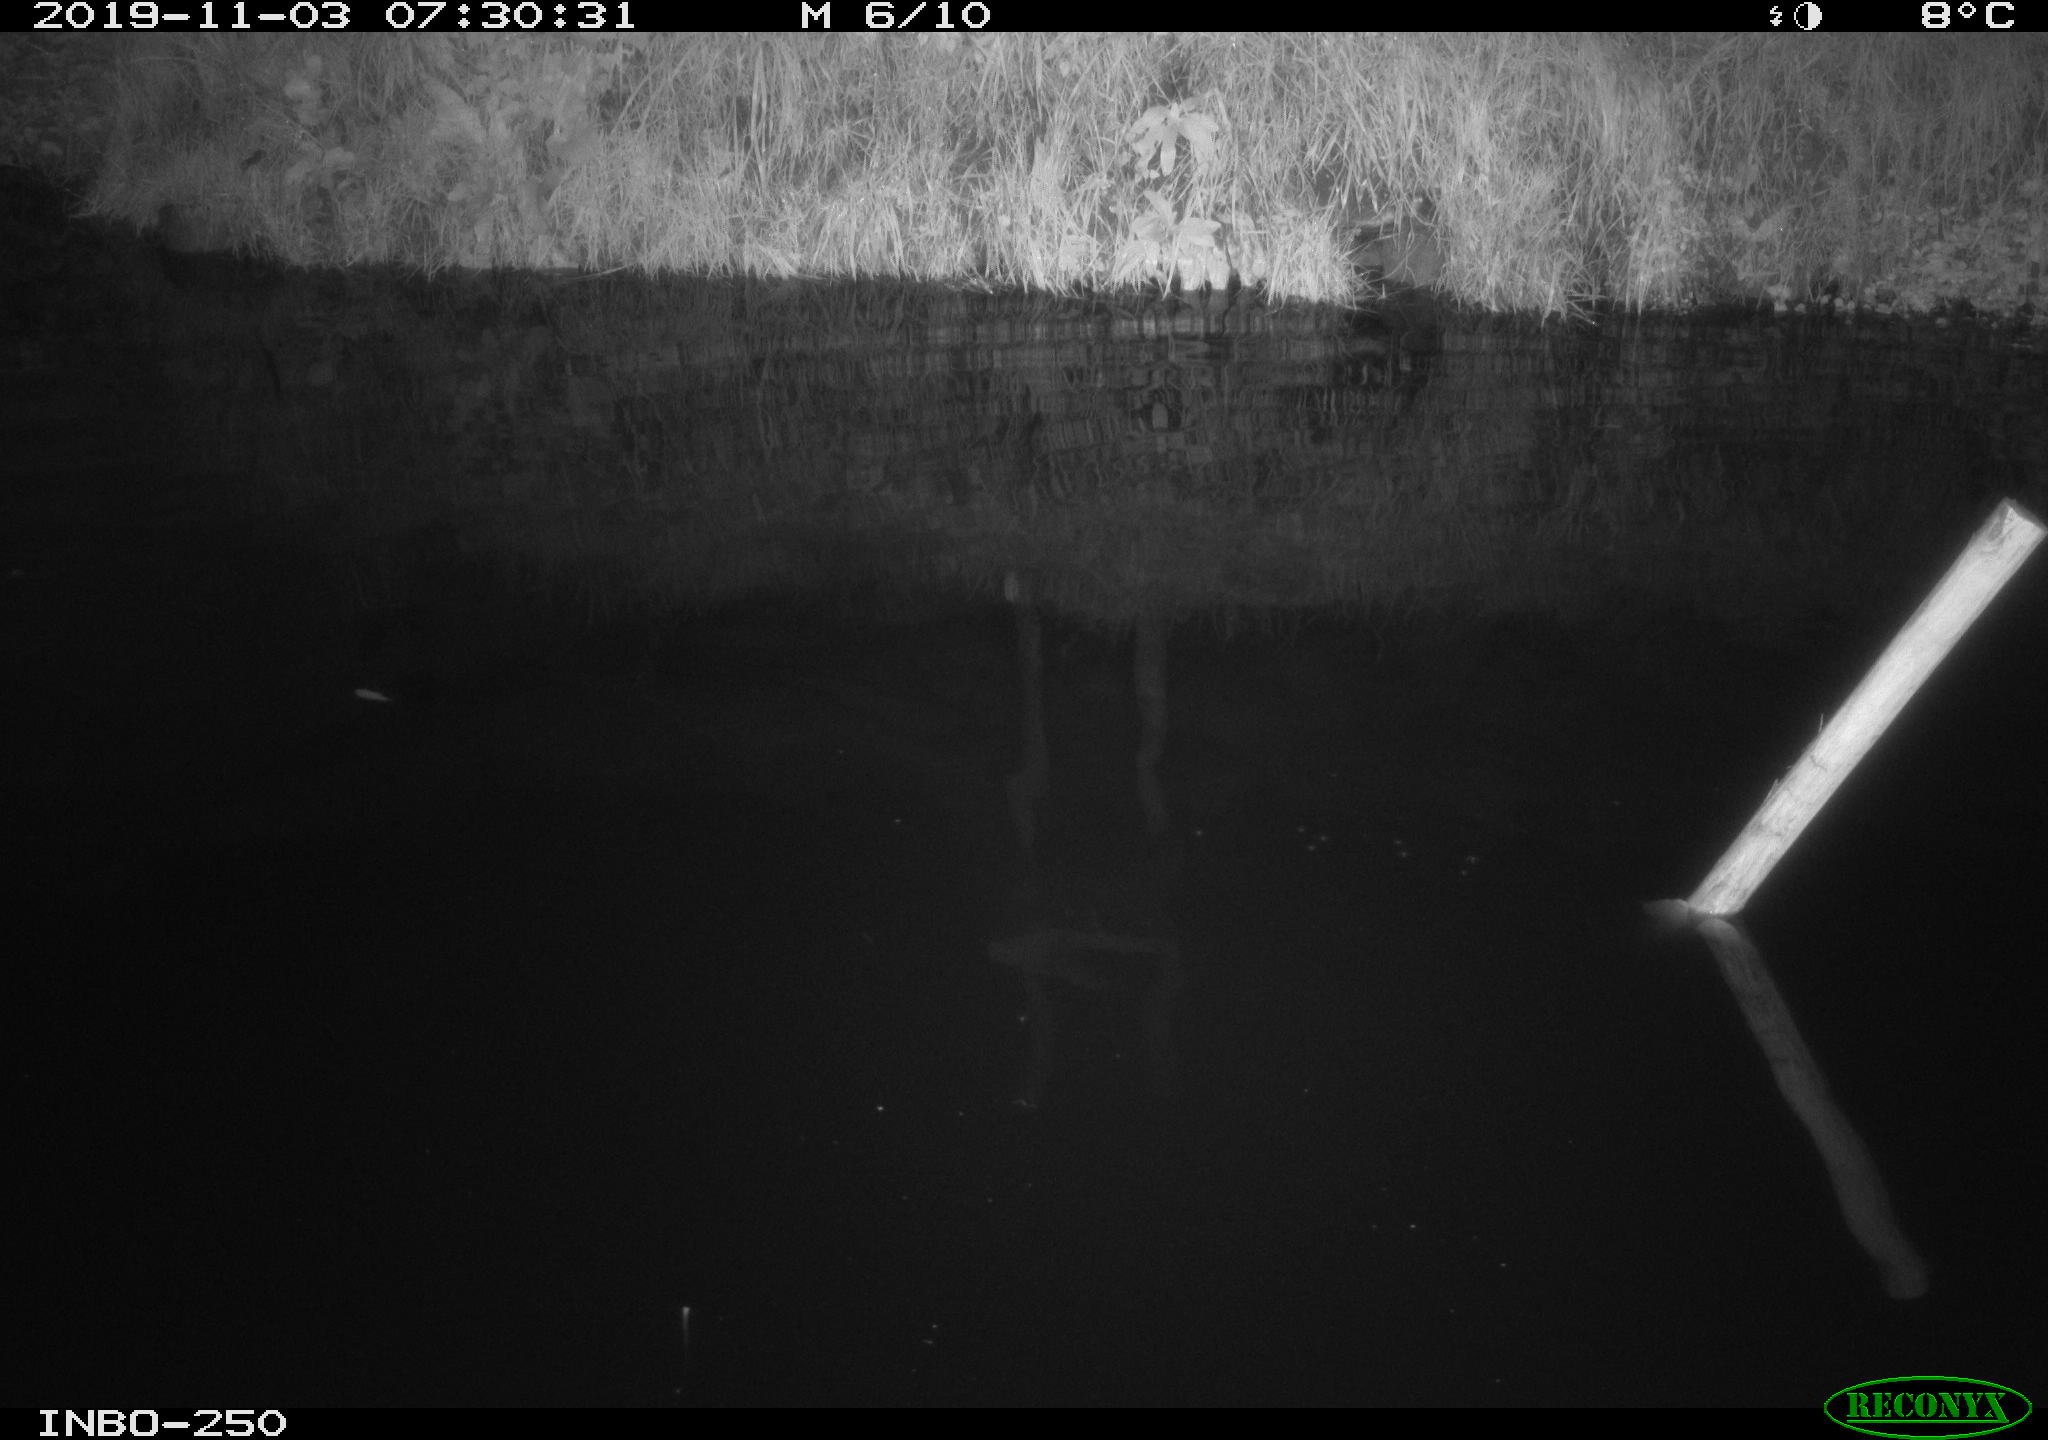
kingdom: Animalia
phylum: Chordata
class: Aves
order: Anseriformes
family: Anatidae
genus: Anas
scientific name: Anas platyrhynchos
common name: Mallard
